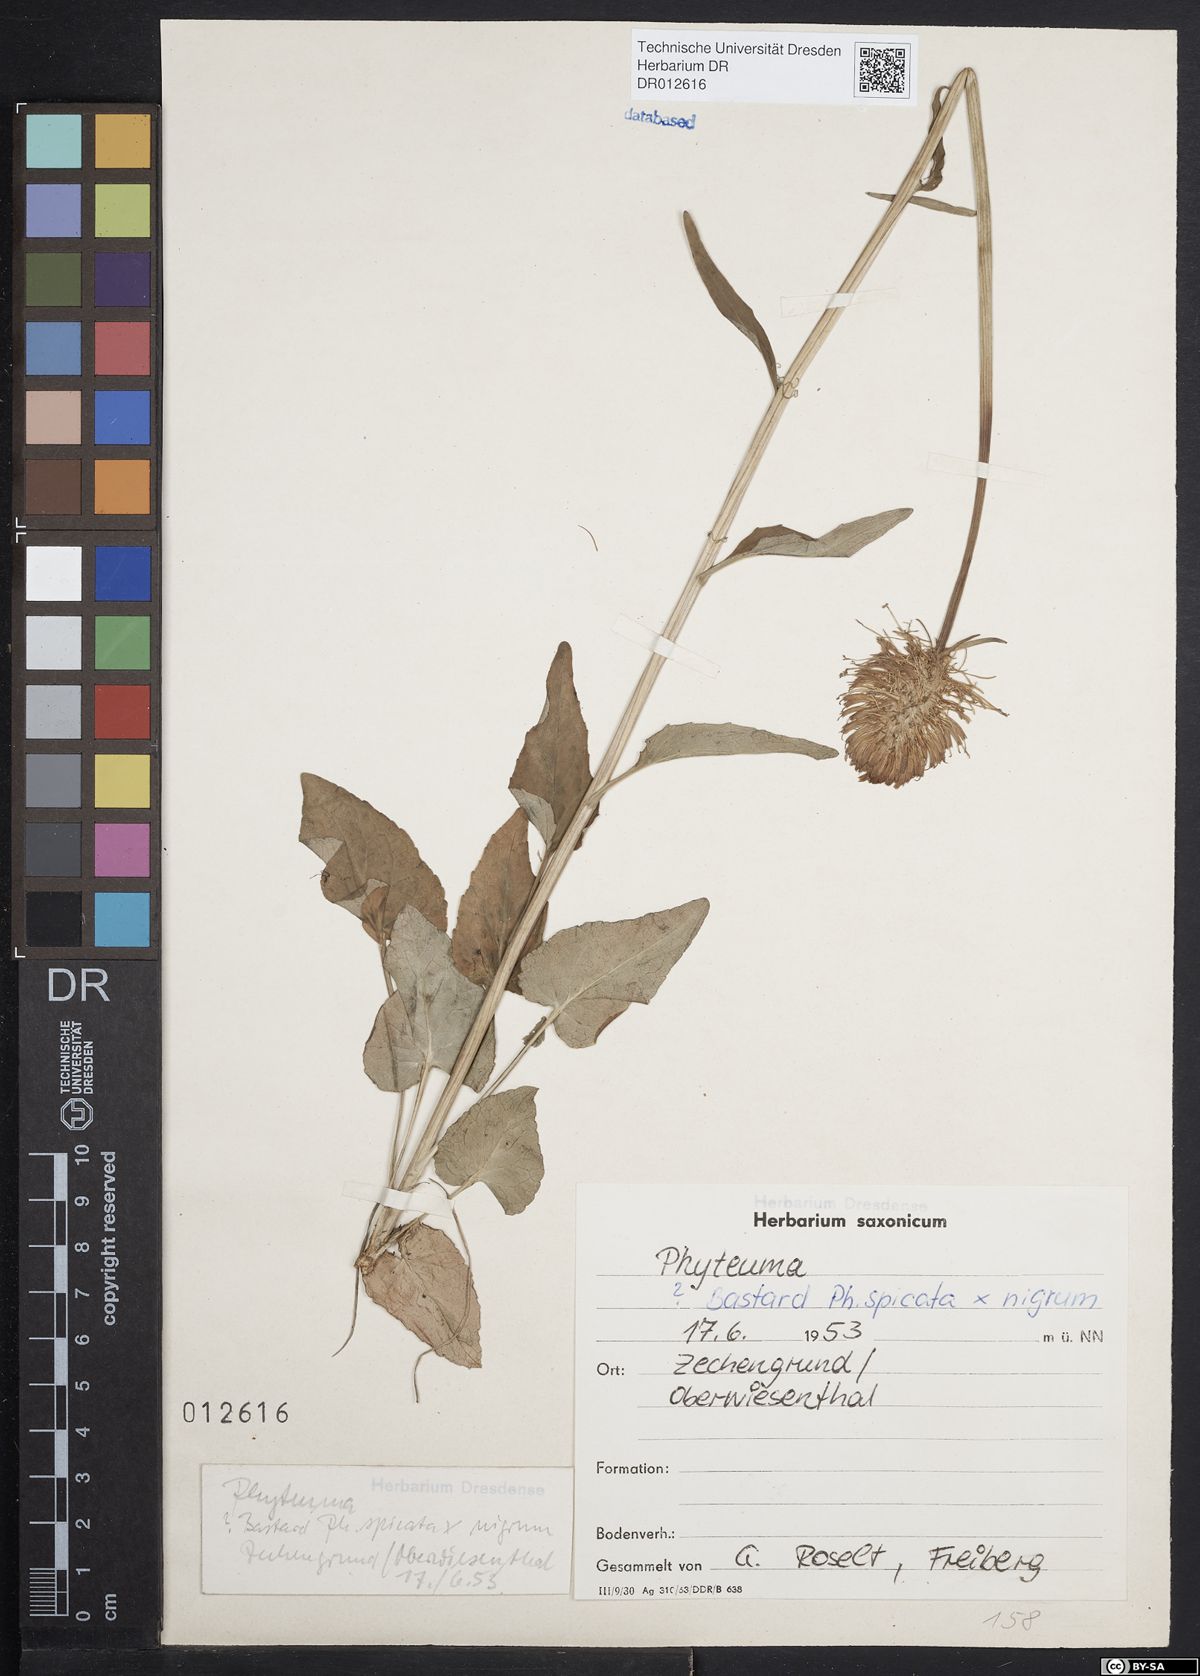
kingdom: Plantae
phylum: Tracheophyta
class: Magnoliopsida
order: Asterales
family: Campanulaceae
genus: Phyteuma
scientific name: Phyteuma adulterinum
